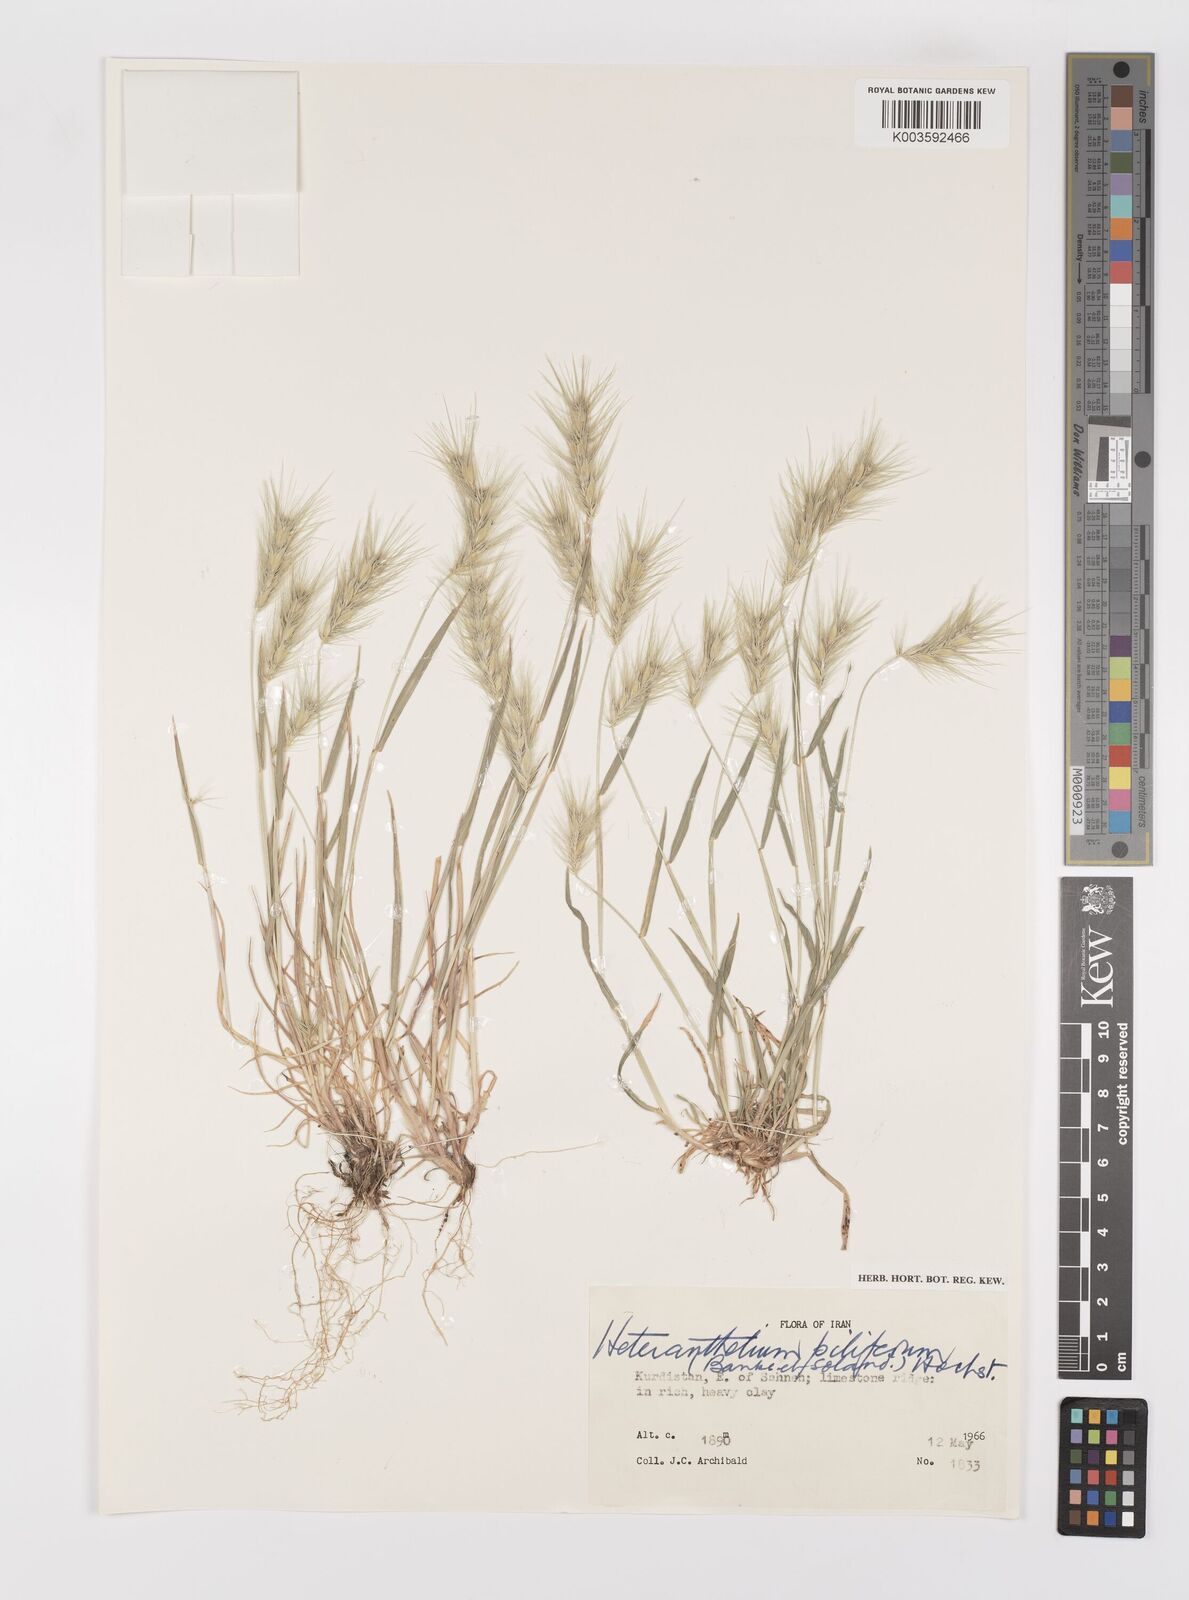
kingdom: Plantae
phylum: Tracheophyta
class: Liliopsida
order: Poales
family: Poaceae
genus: Heteranthelium
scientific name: Heteranthelium piliferum
